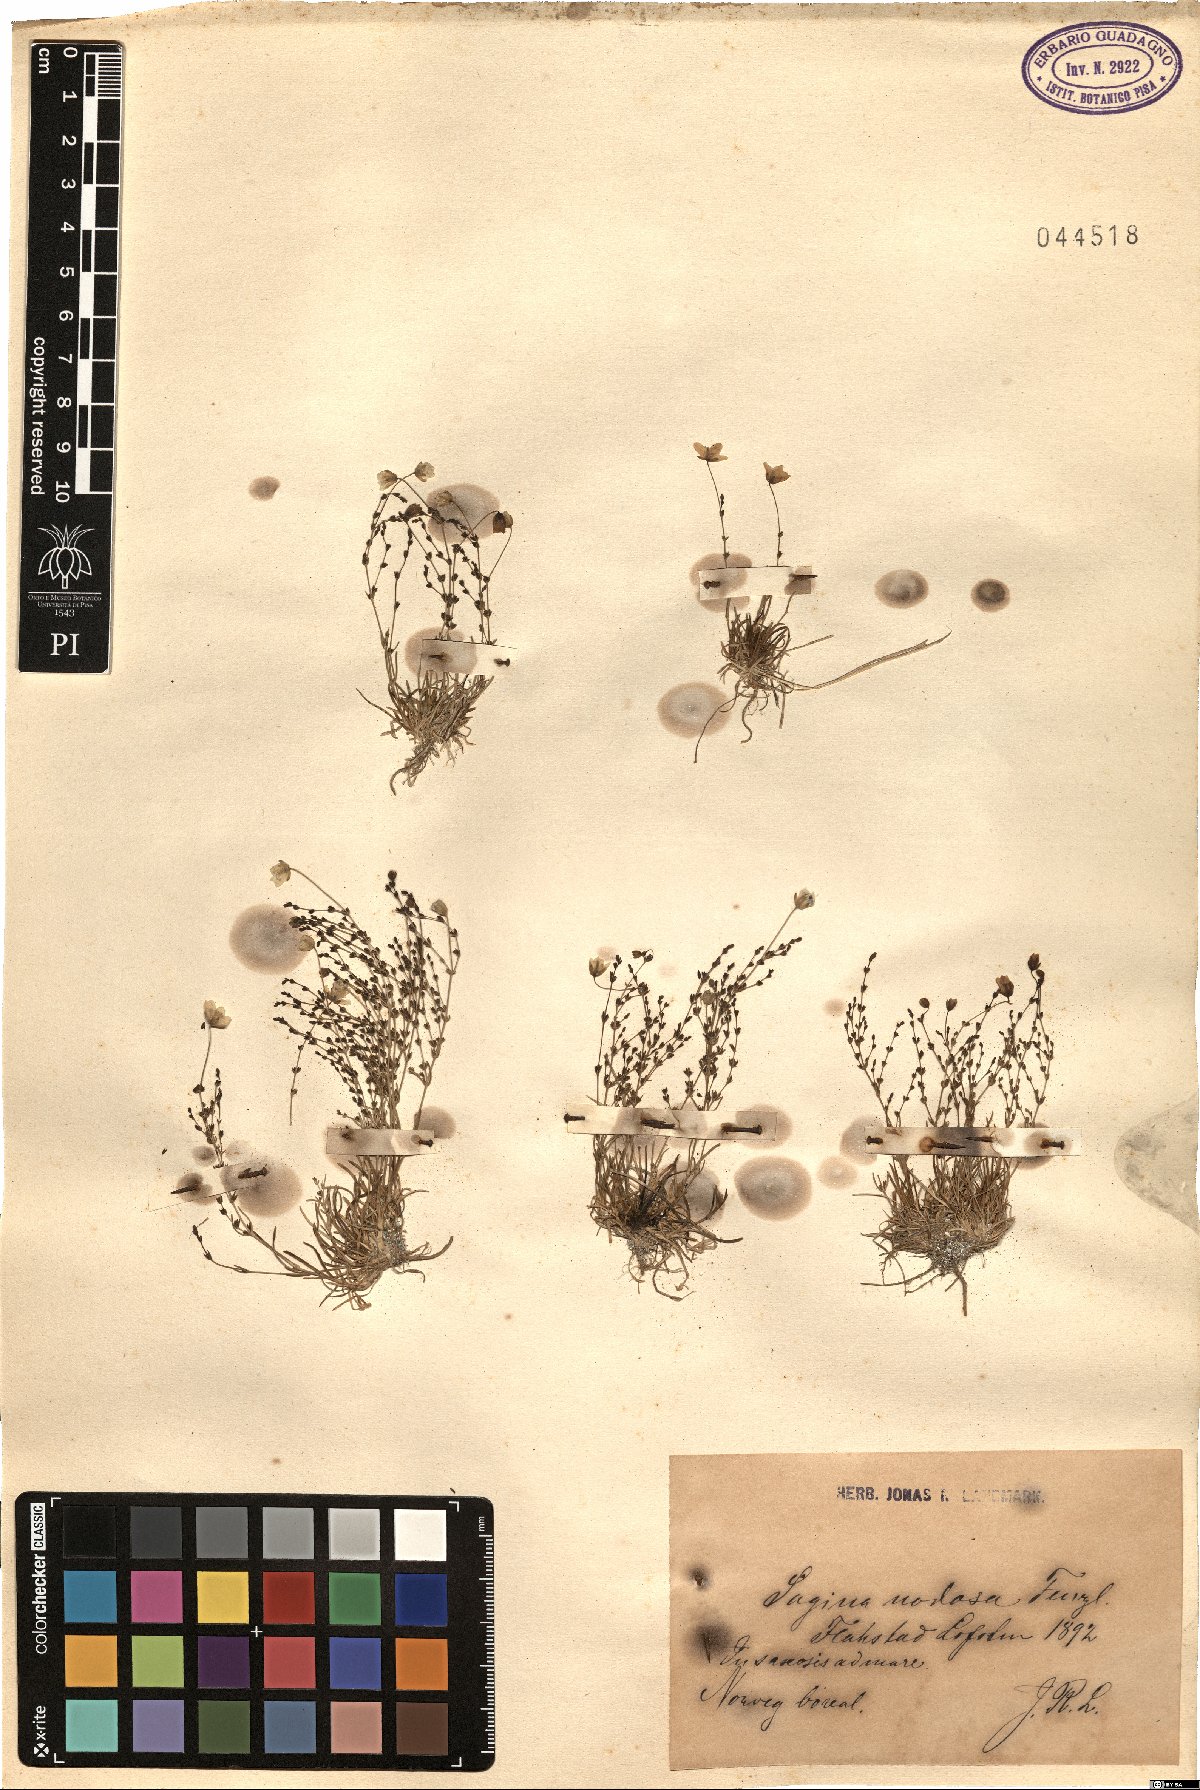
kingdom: Plantae
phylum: Tracheophyta
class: Magnoliopsida
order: Caryophyllales
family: Caryophyllaceae
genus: Sagina
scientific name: Sagina nodosa
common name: Knotted pearlwort
